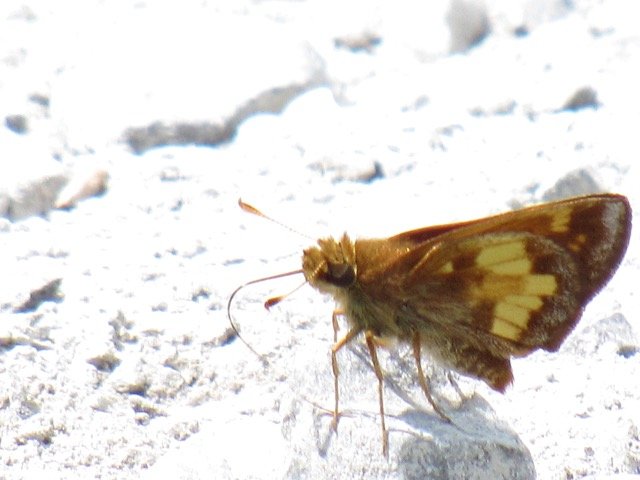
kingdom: Animalia
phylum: Arthropoda
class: Insecta
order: Lepidoptera
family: Hesperiidae
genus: Lon
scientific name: Lon hobomok
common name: Hobomok Skipper
